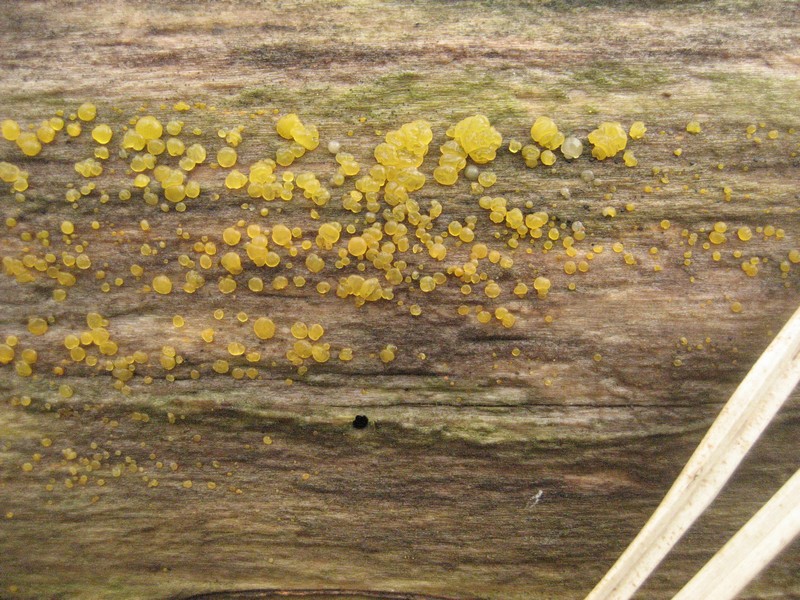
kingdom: Fungi
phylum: Basidiomycota
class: Dacrymycetes
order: Dacrymycetales
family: Dacrymycetaceae
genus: Dacrymyces
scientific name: Dacrymyces lacrymalis
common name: rynket tåresvamp
